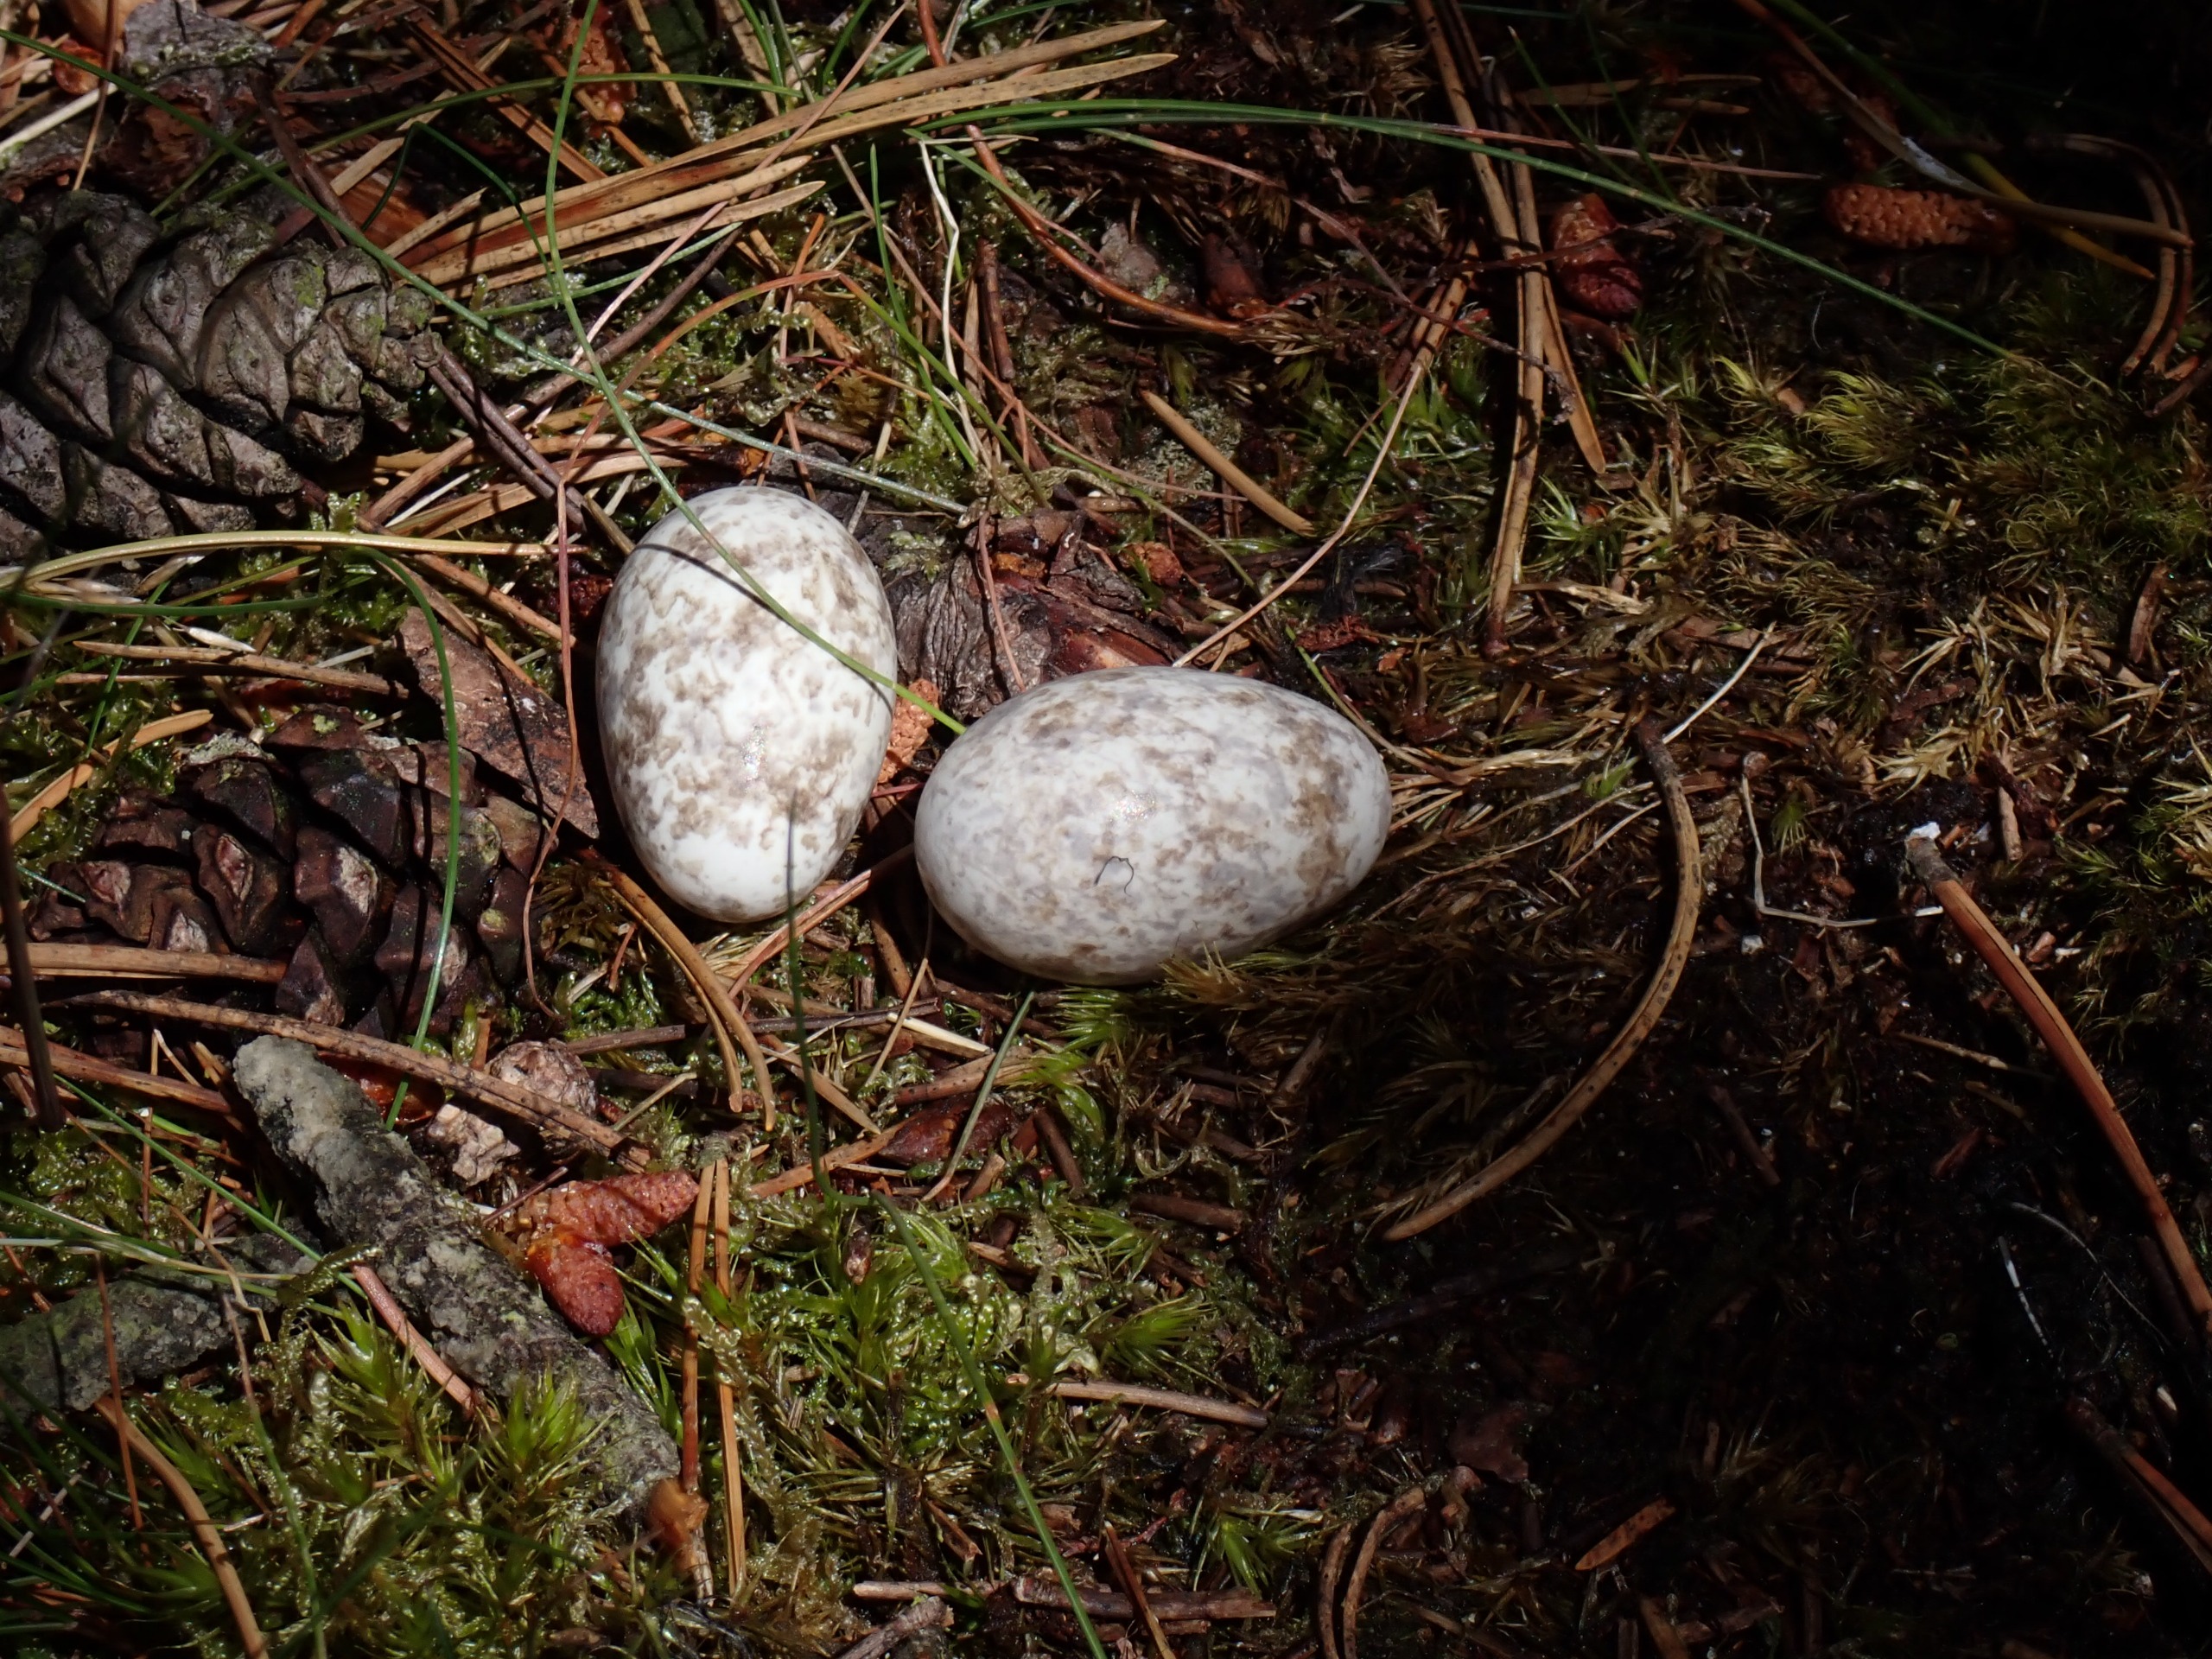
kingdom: Animalia
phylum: Chordata
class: Aves
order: Caprimulgiformes
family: Caprimulgidae
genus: Caprimulgus
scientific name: Caprimulgus europaeus
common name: Natravn
